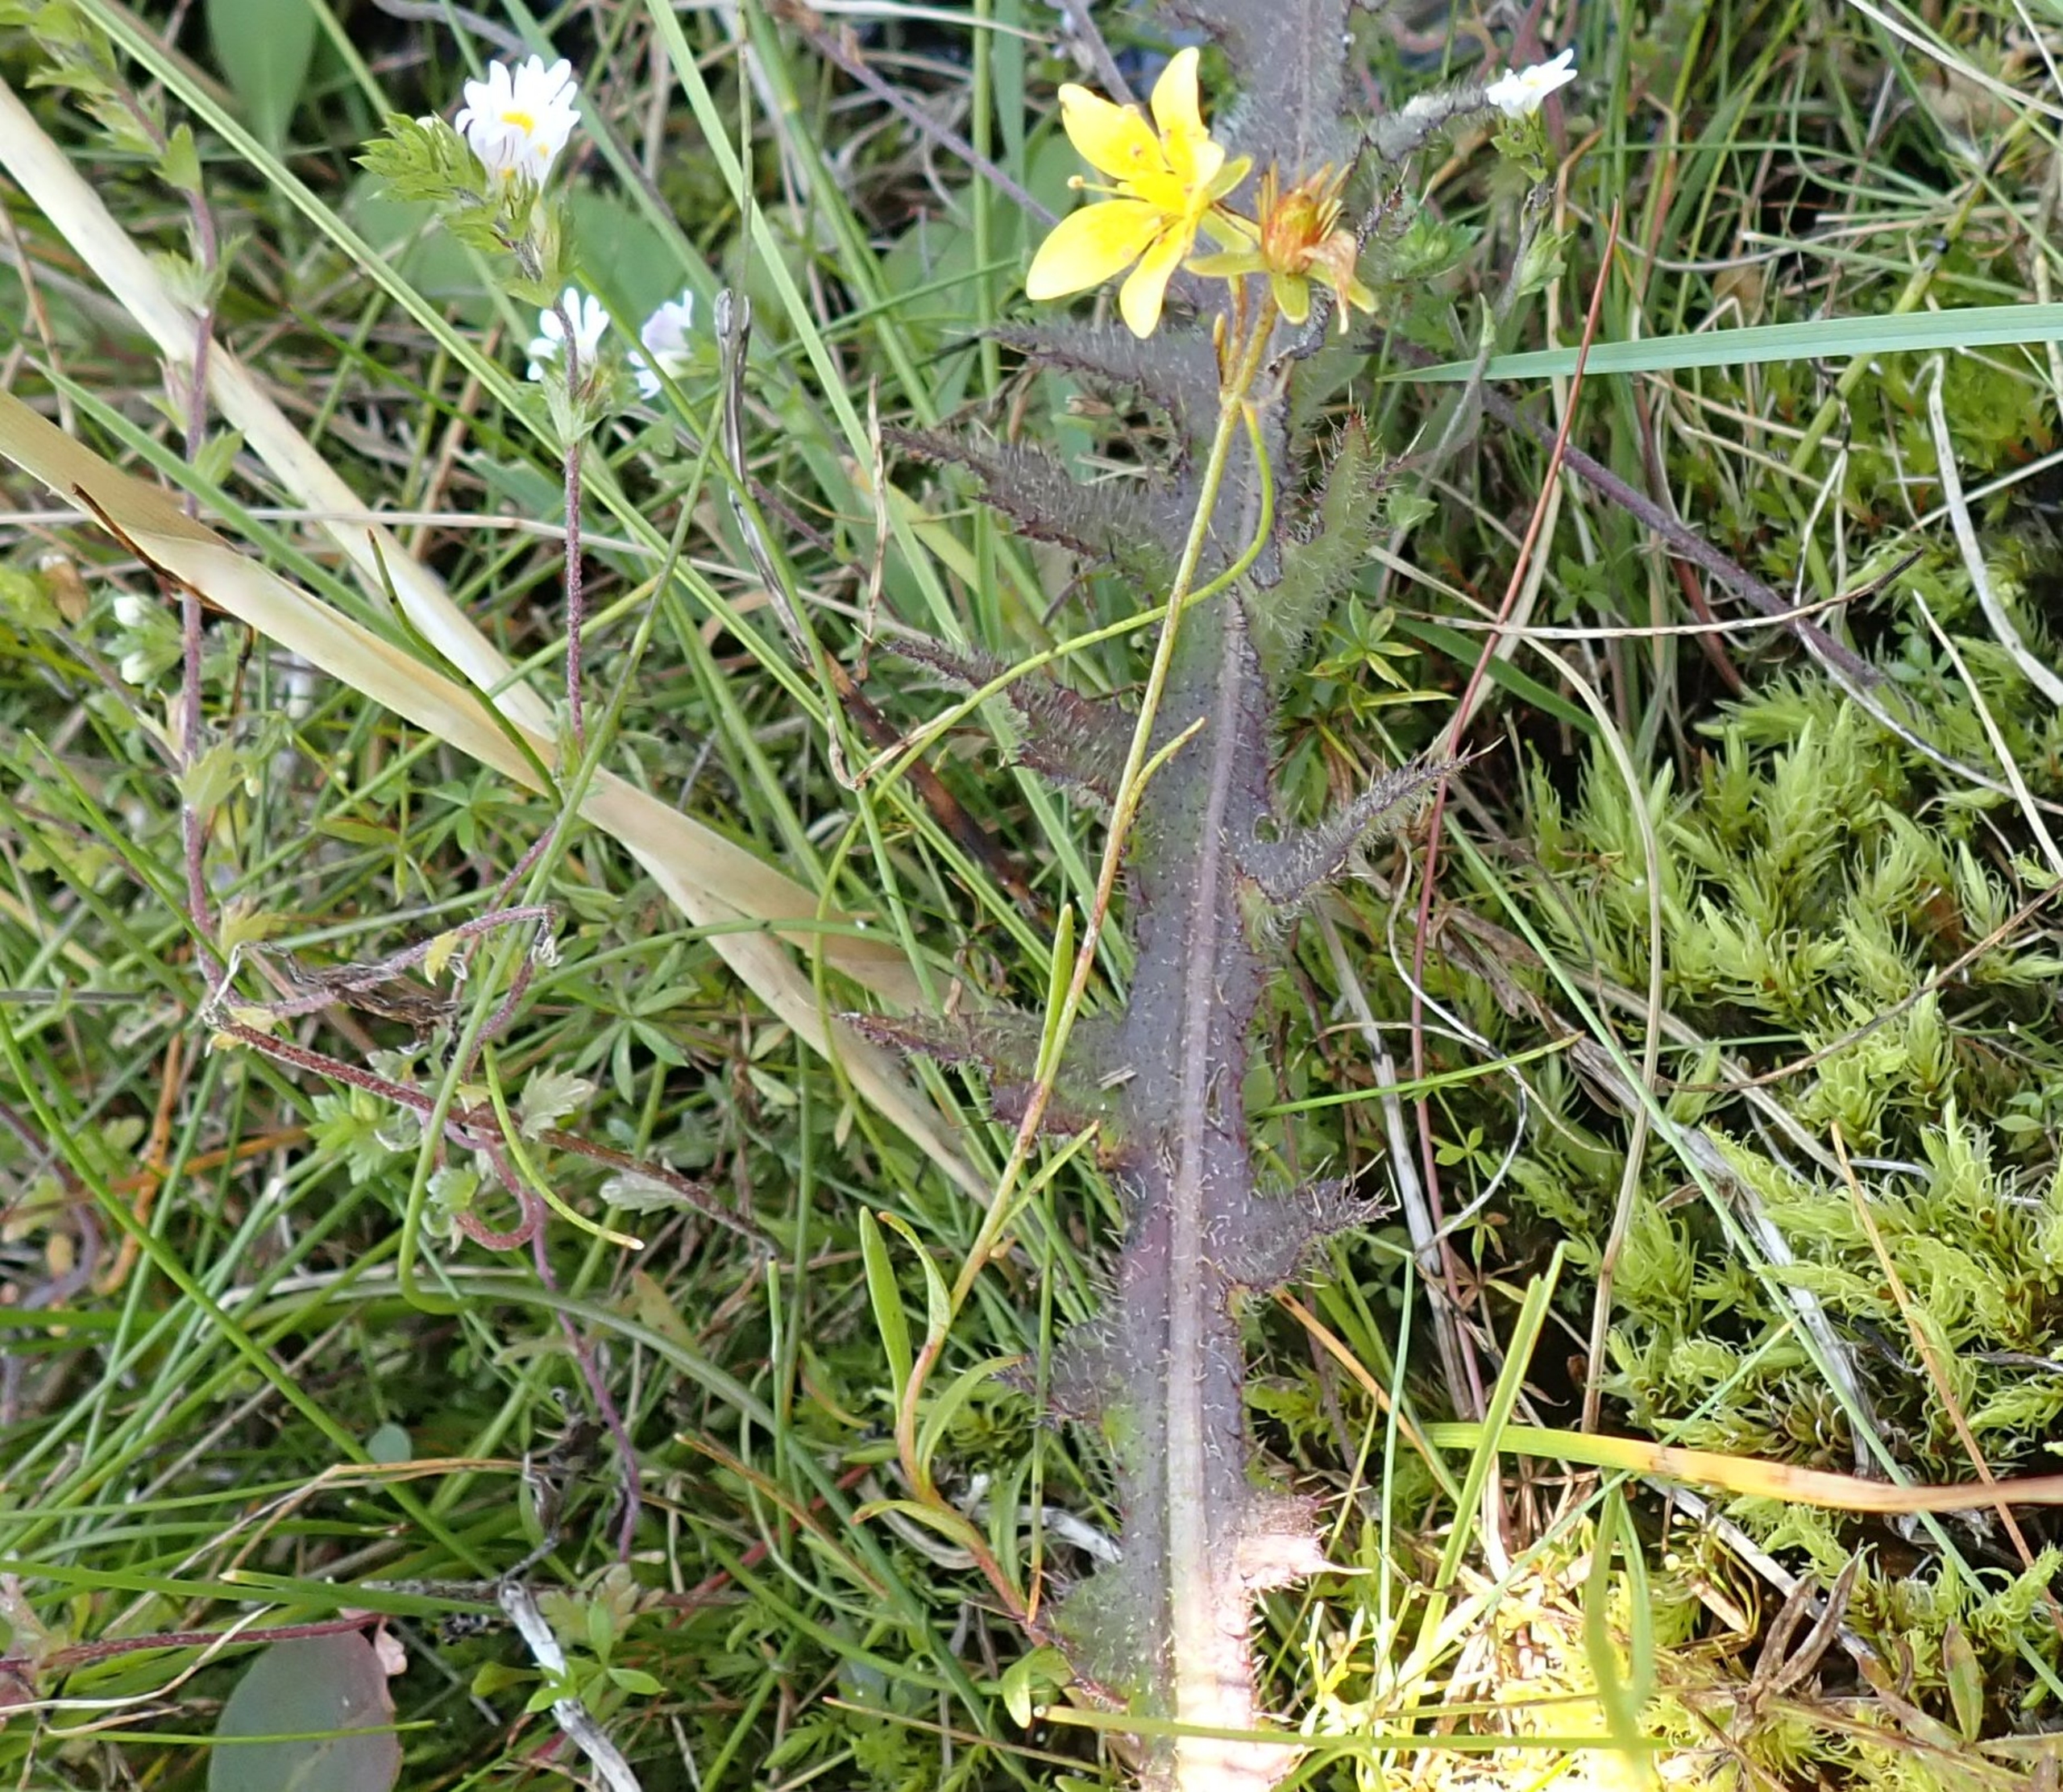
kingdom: Plantae
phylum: Tracheophyta
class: Magnoliopsida
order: Saxifragales
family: Saxifragaceae
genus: Saxifraga
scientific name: Saxifraga hirculus
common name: Gul stenbræk
